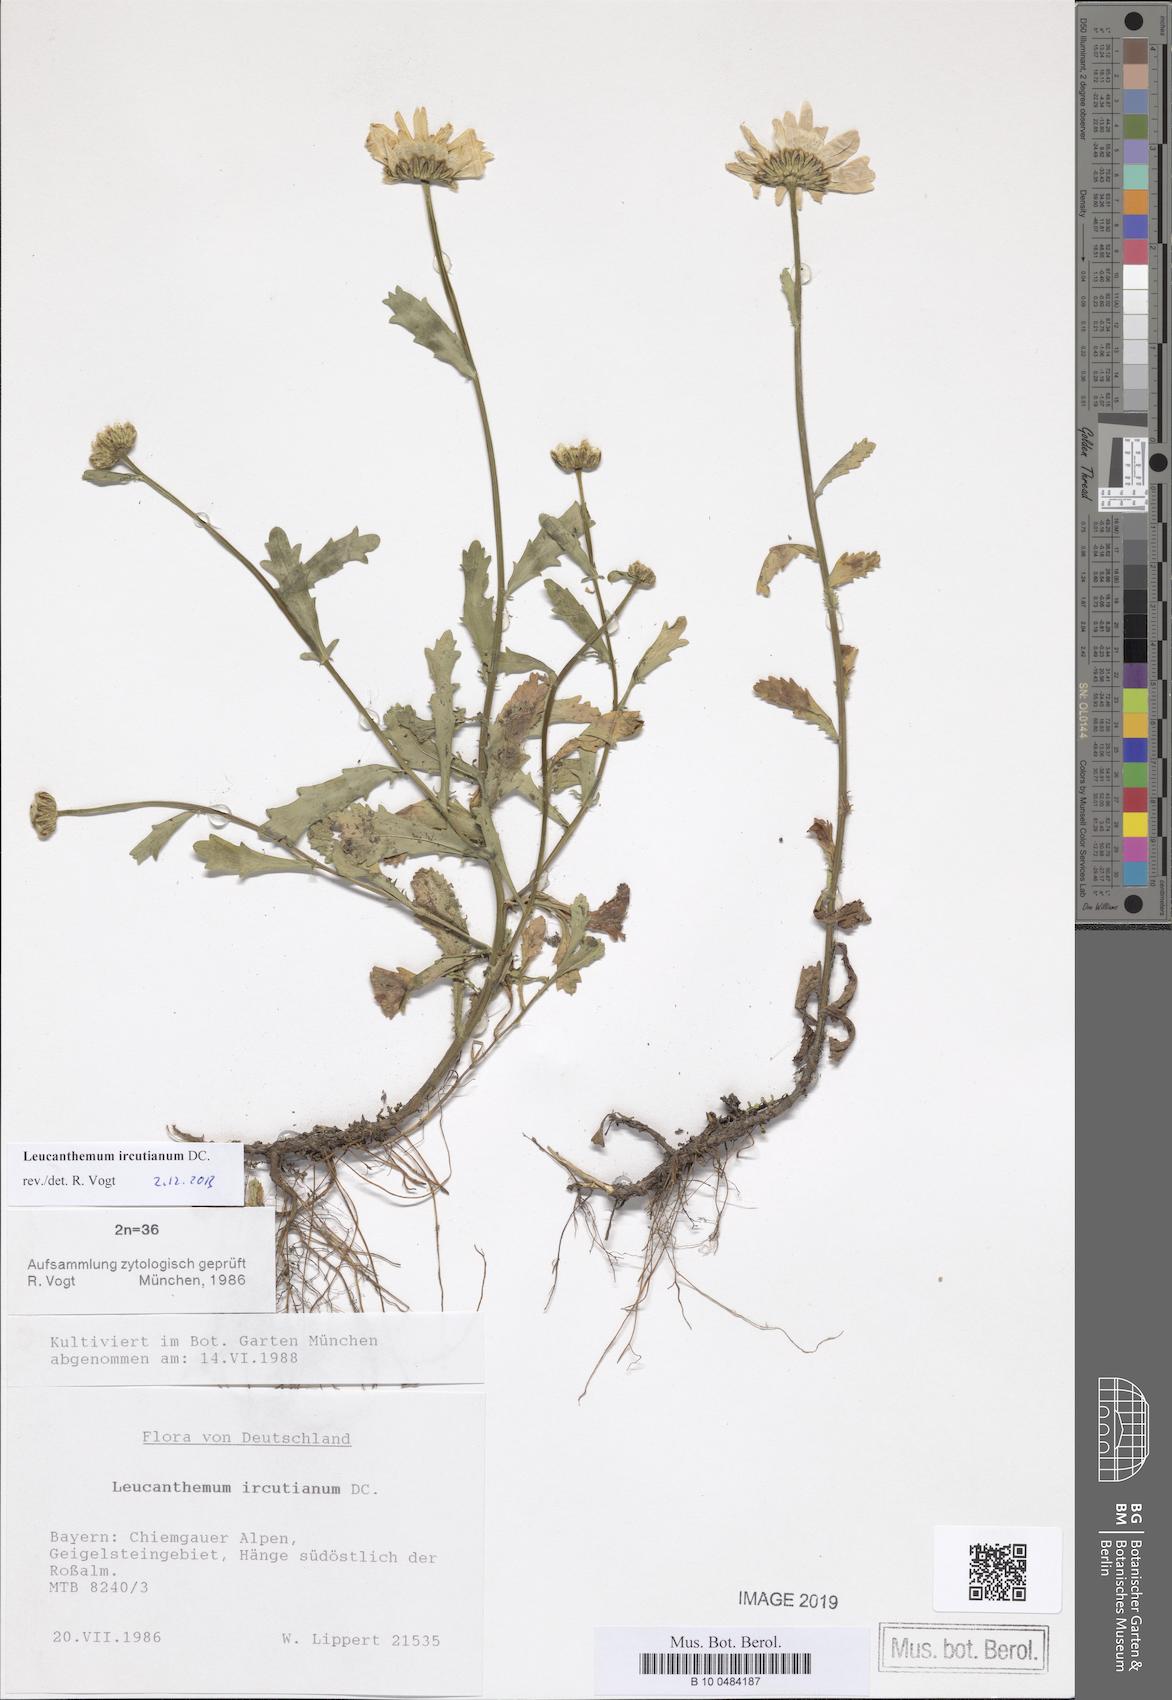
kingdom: Plantae
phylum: Tracheophyta
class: Magnoliopsida
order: Asterales
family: Asteraceae
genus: Leucanthemum
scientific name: Leucanthemum ircutianum
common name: Daisy
